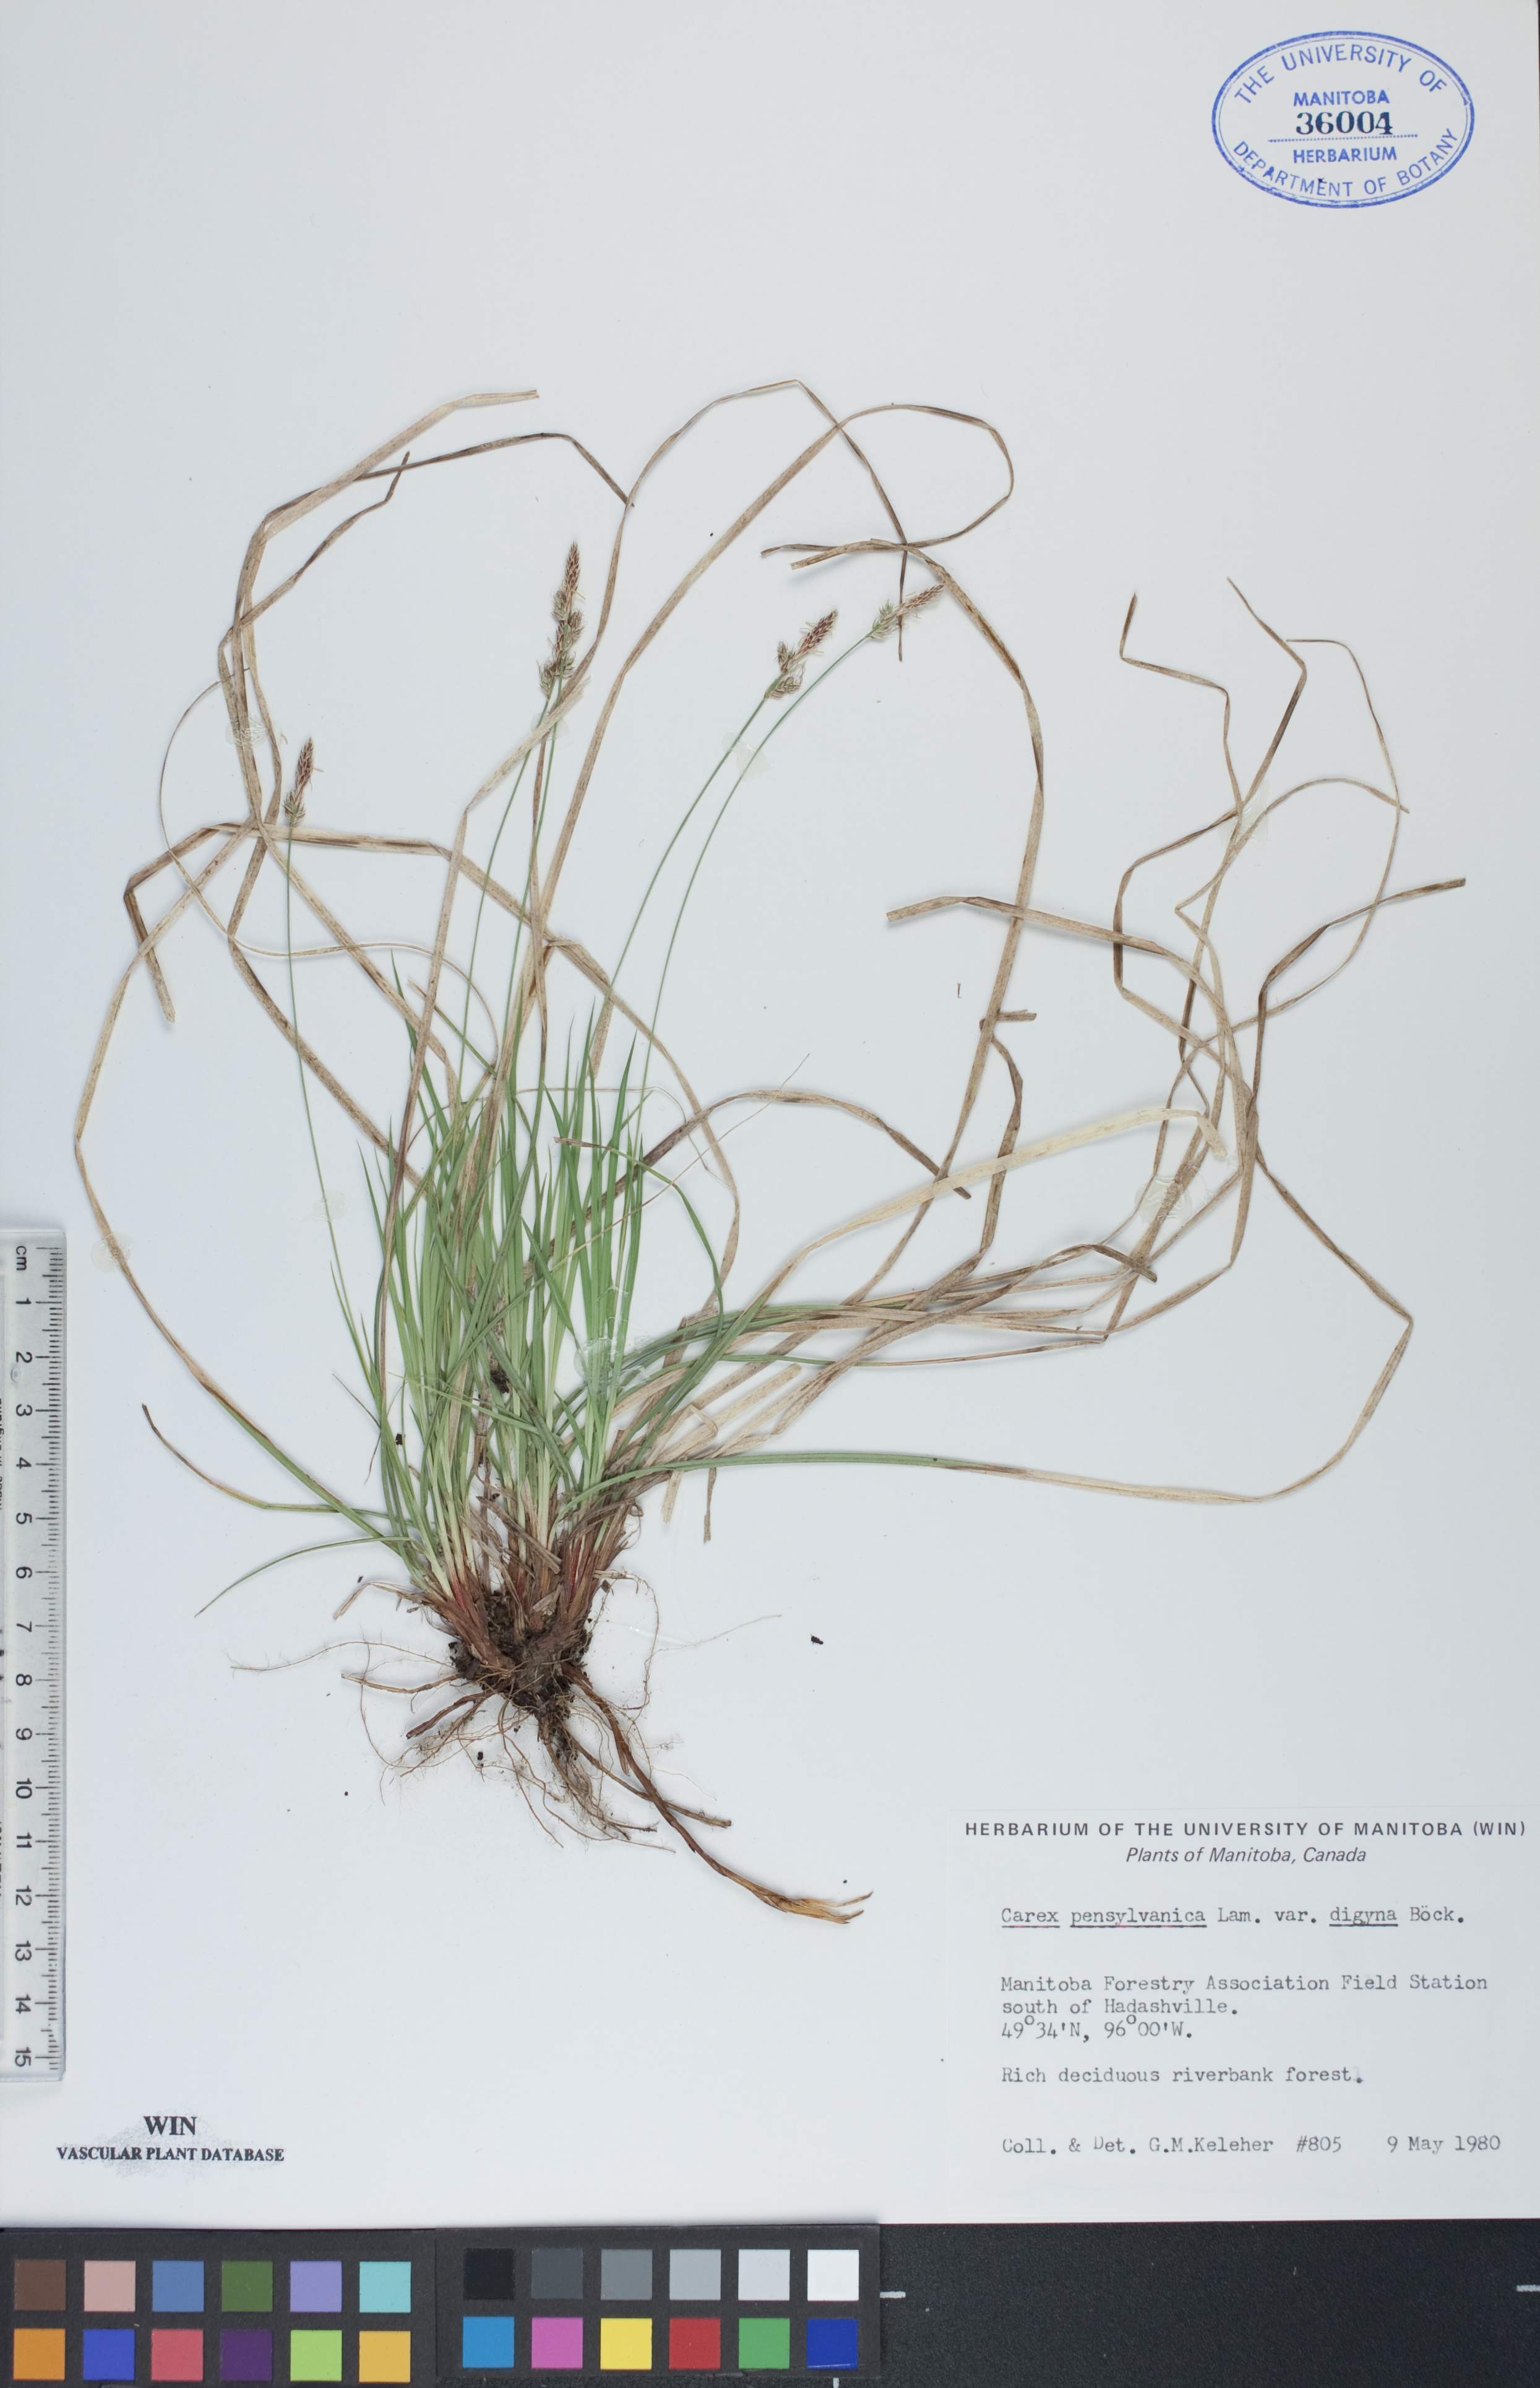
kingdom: Plantae
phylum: Tracheophyta
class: Liliopsida
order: Poales
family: Cyperaceae
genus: Carex
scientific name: Carex inops
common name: Long-stolon sedge
